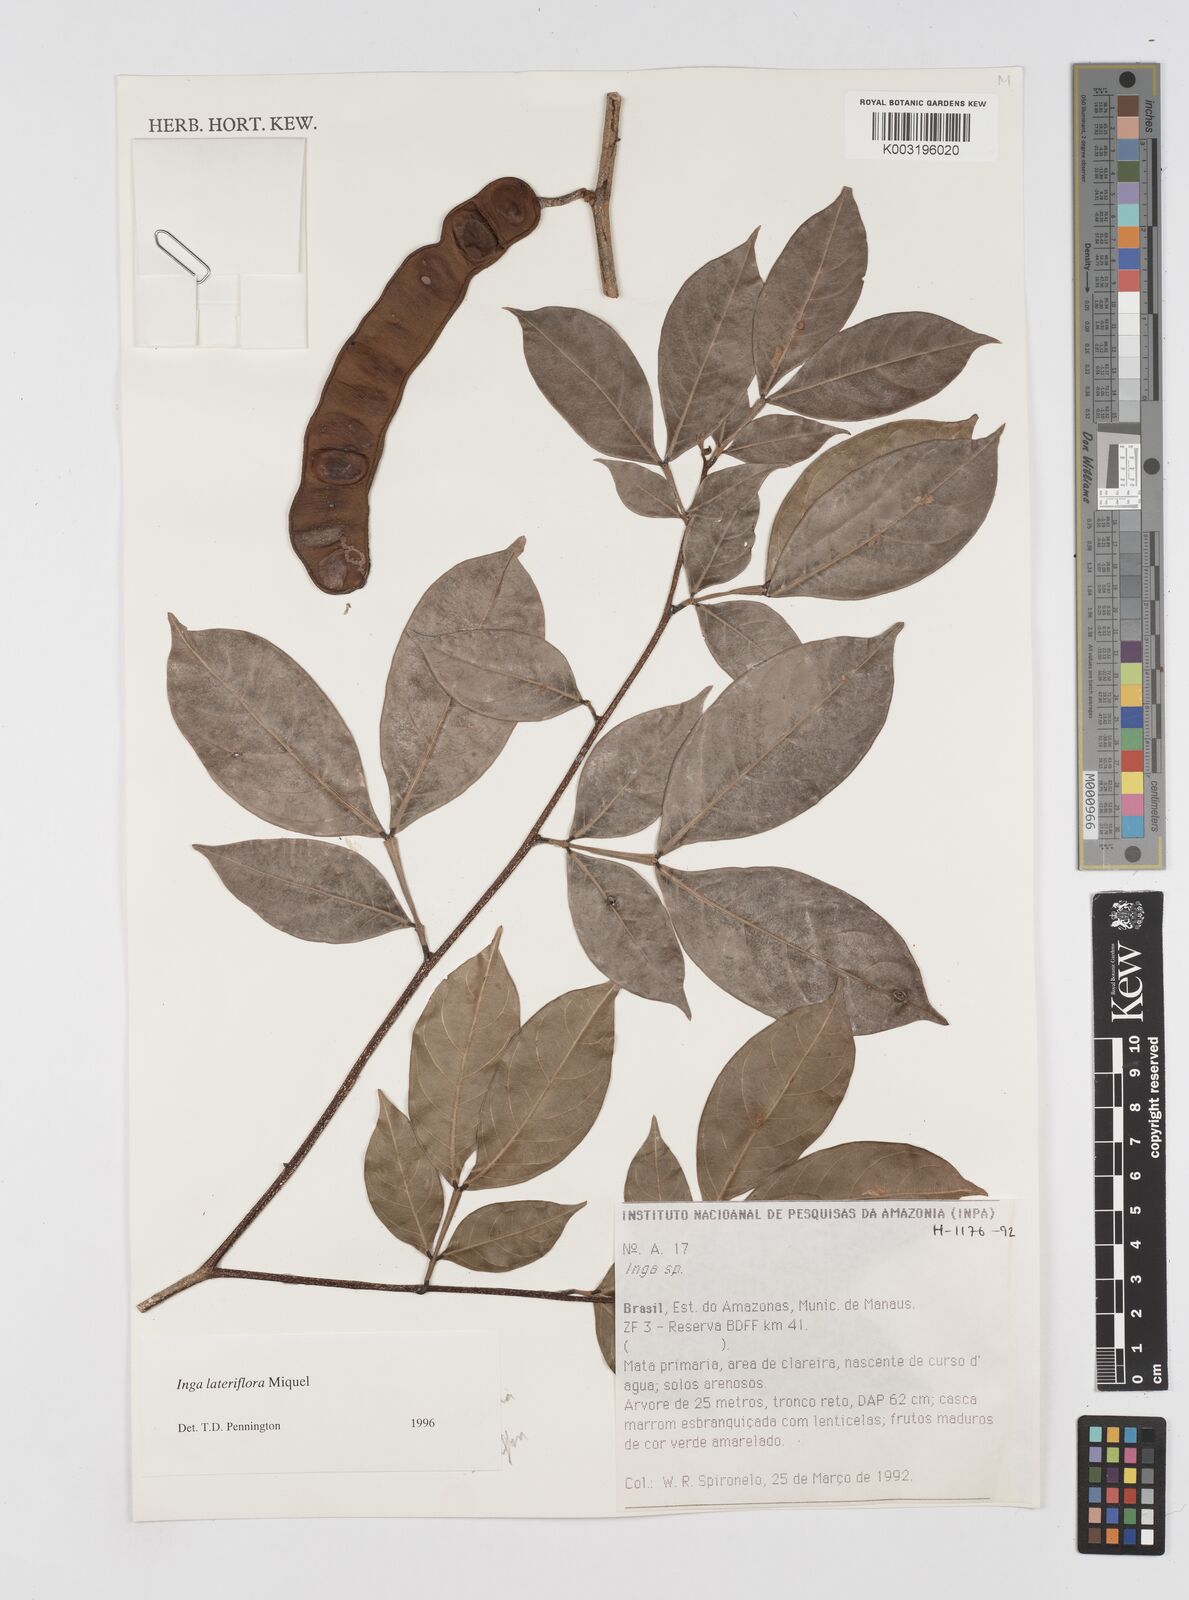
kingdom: Plantae
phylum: Tracheophyta
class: Magnoliopsida
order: Fabales
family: Fabaceae
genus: Inga
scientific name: Inga lateriflora
